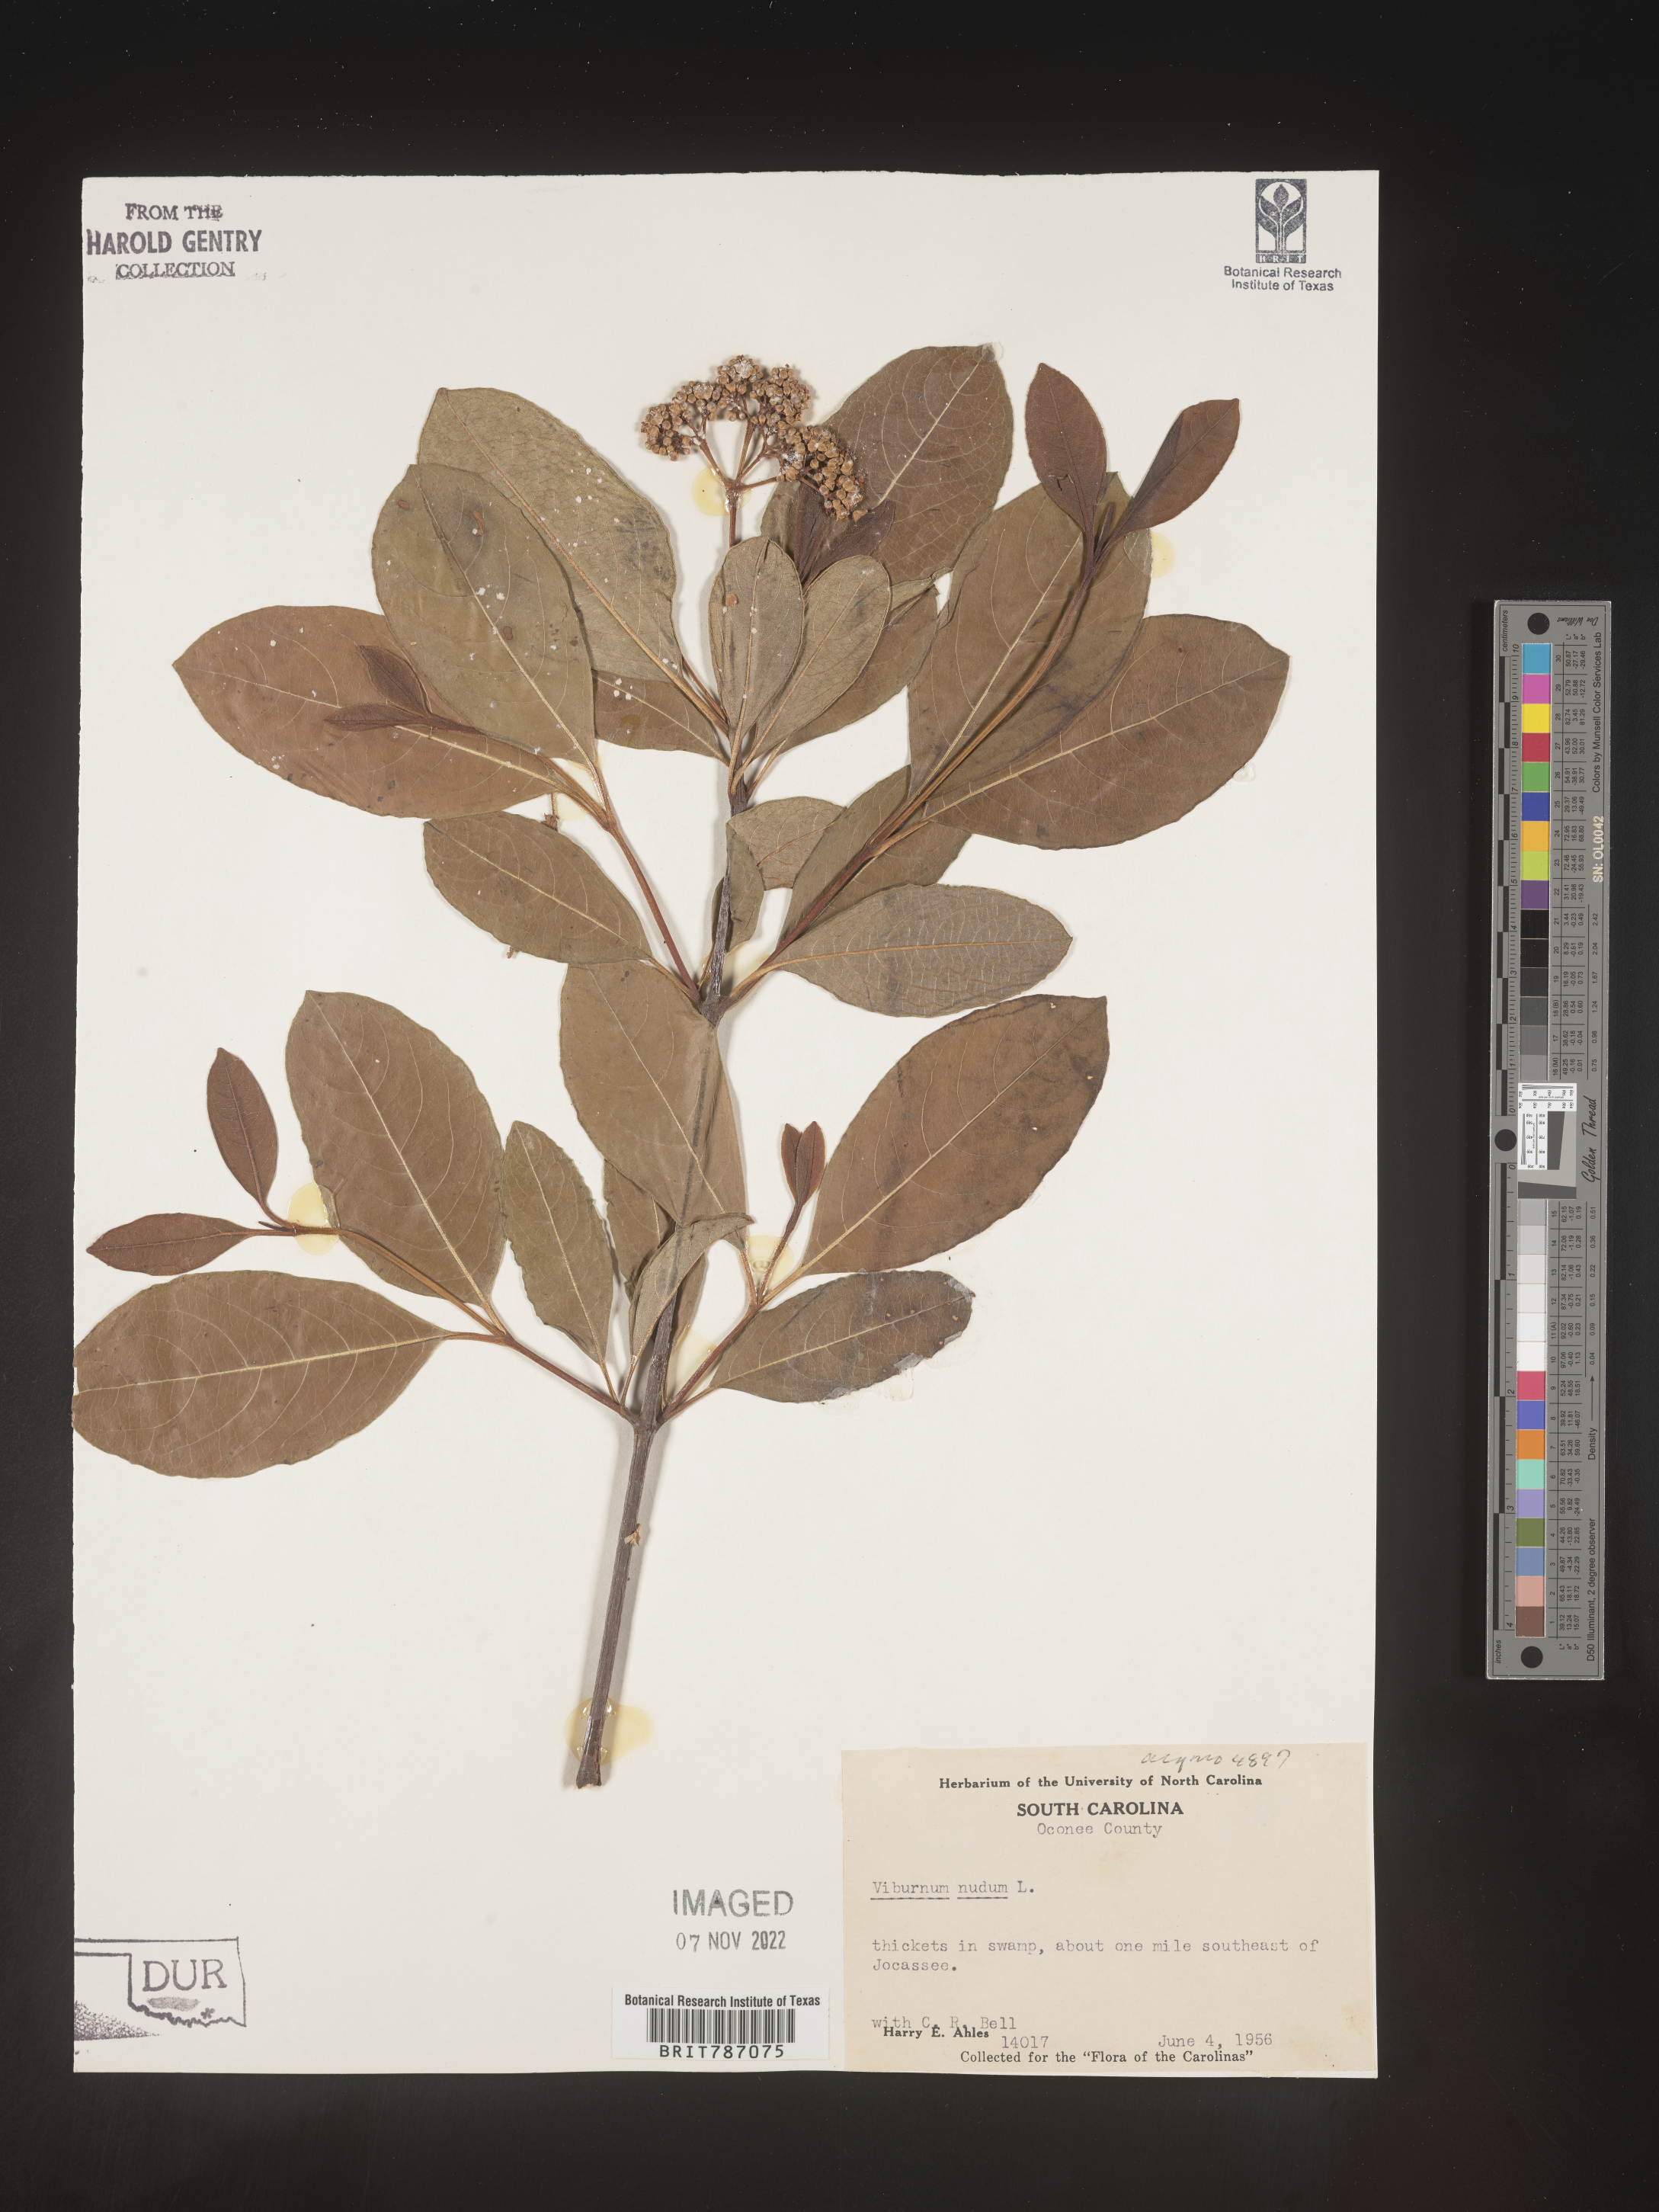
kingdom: Plantae
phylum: Tracheophyta
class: Magnoliopsida
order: Dipsacales
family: Viburnaceae
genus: Viburnum
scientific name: Viburnum nudum
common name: Possum haw
